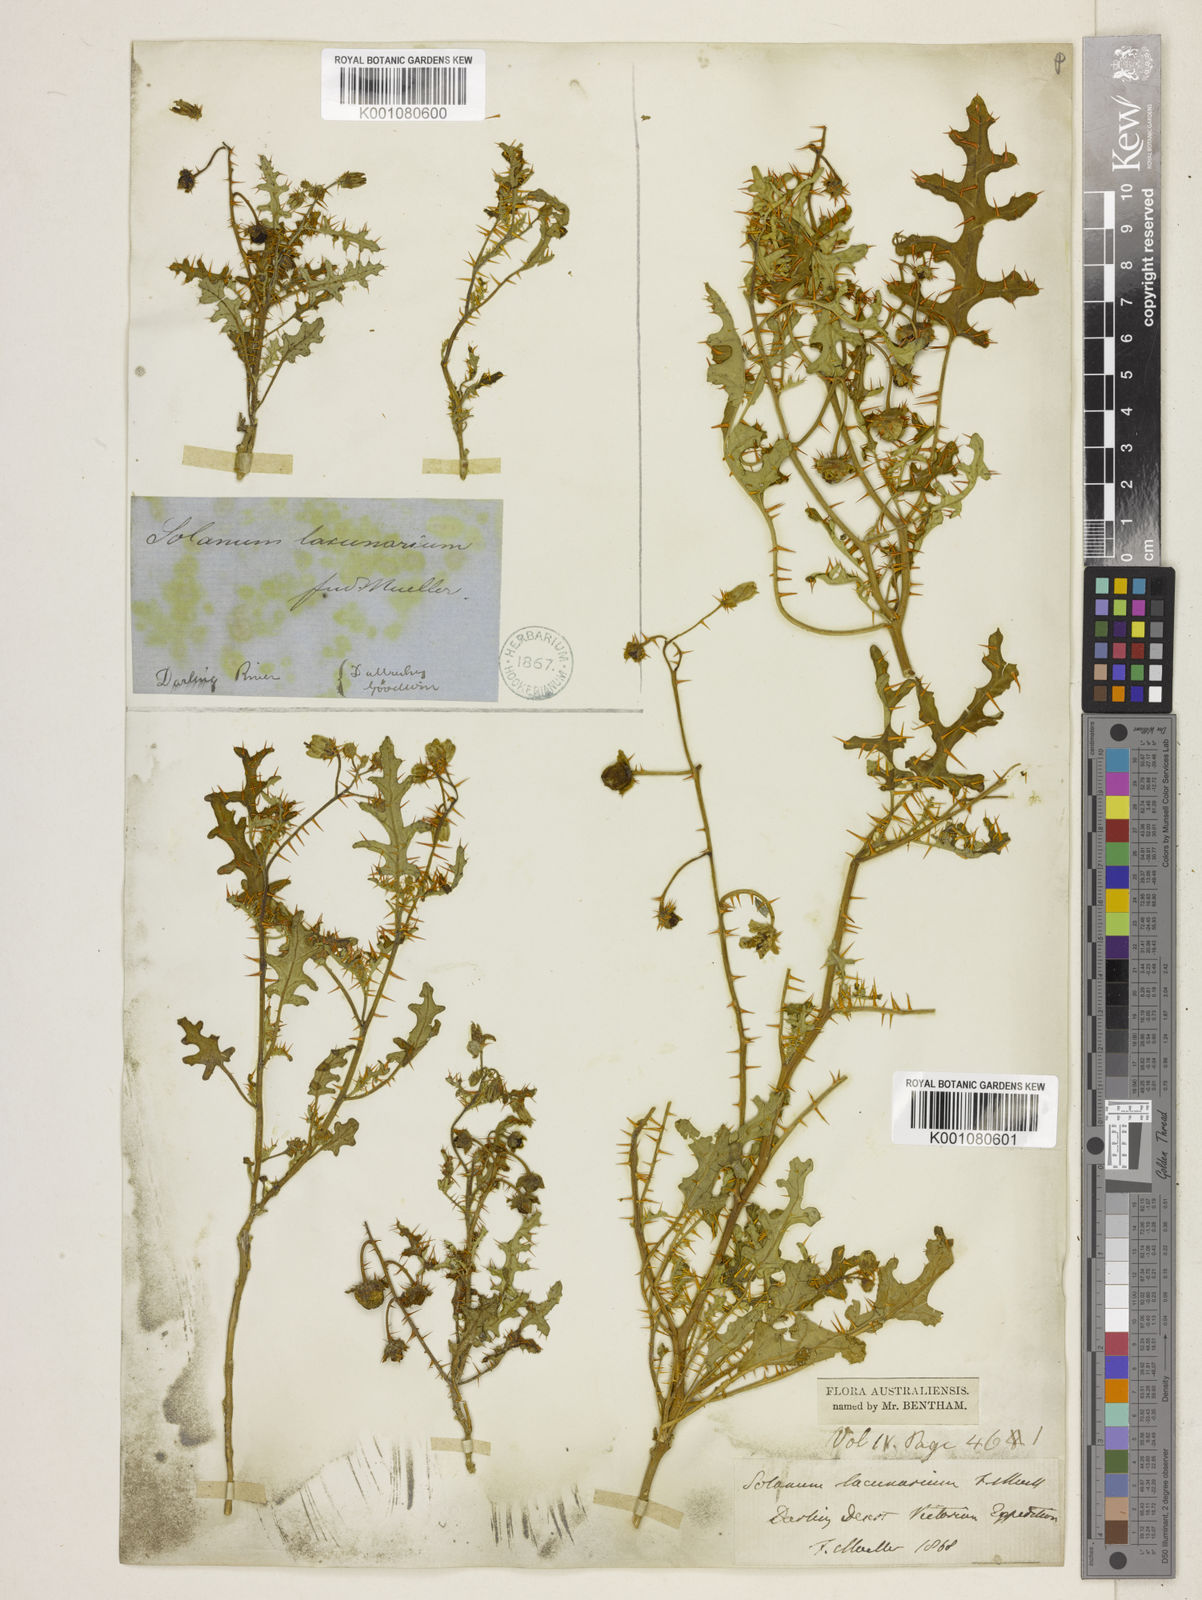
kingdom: Plantae
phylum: Tracheophyta
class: Magnoliopsida
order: Solanales
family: Solanaceae
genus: Solanum
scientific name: Solanum lacunarium
